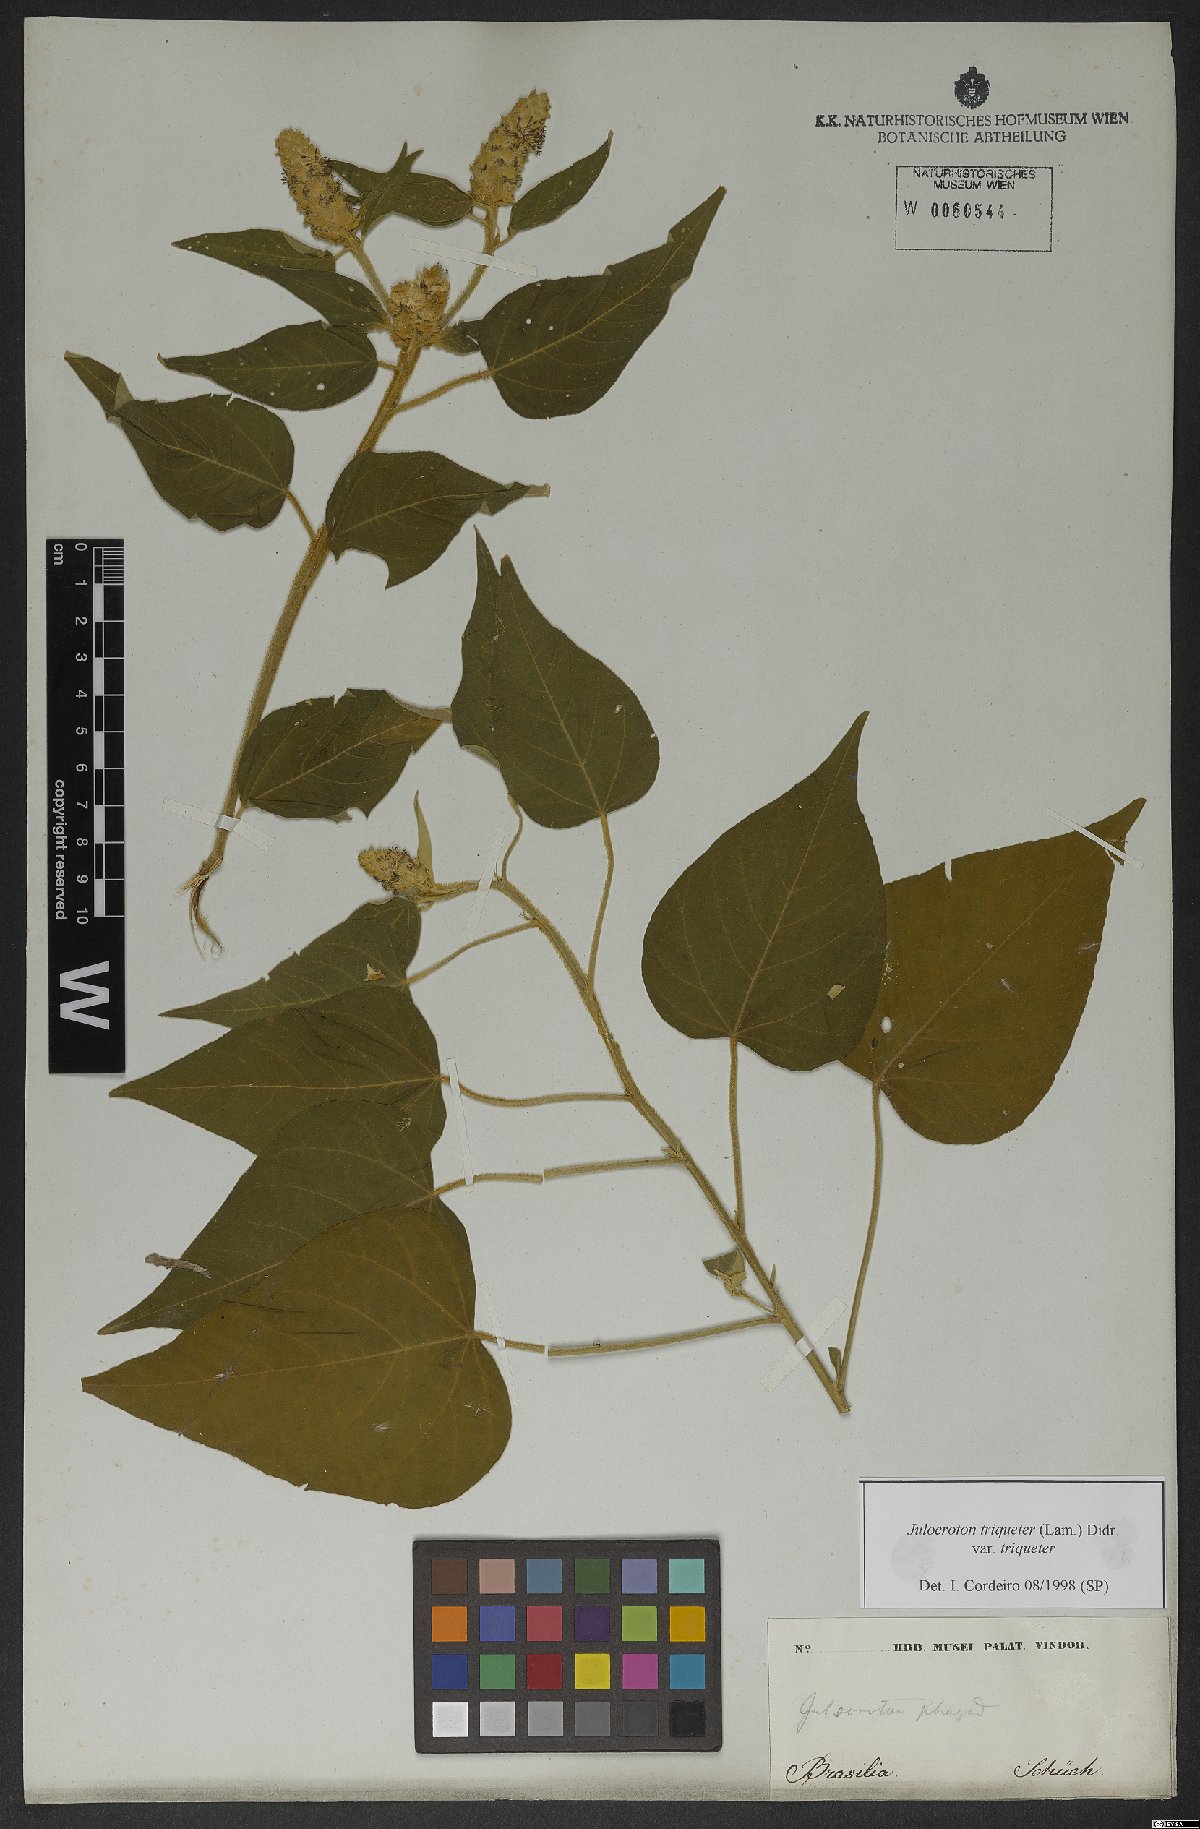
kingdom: Plantae
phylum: Tracheophyta
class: Magnoliopsida
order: Malpighiales
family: Euphorbiaceae
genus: Croton
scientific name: Croton triqueter
